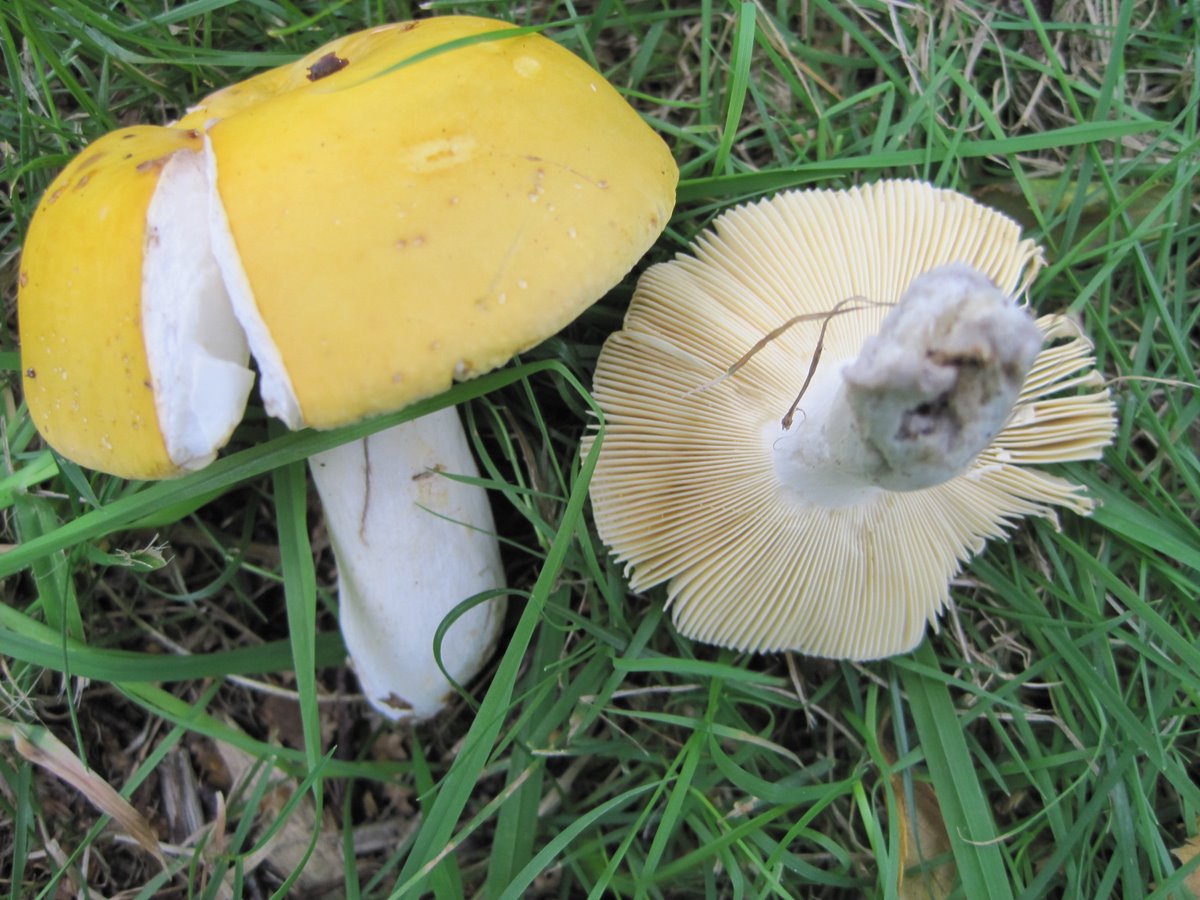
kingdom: Fungi
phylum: Basidiomycota
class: Agaricomycetes
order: Russulales
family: Russulaceae
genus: Russula
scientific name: Russula claroflava
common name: birke-skørhat
